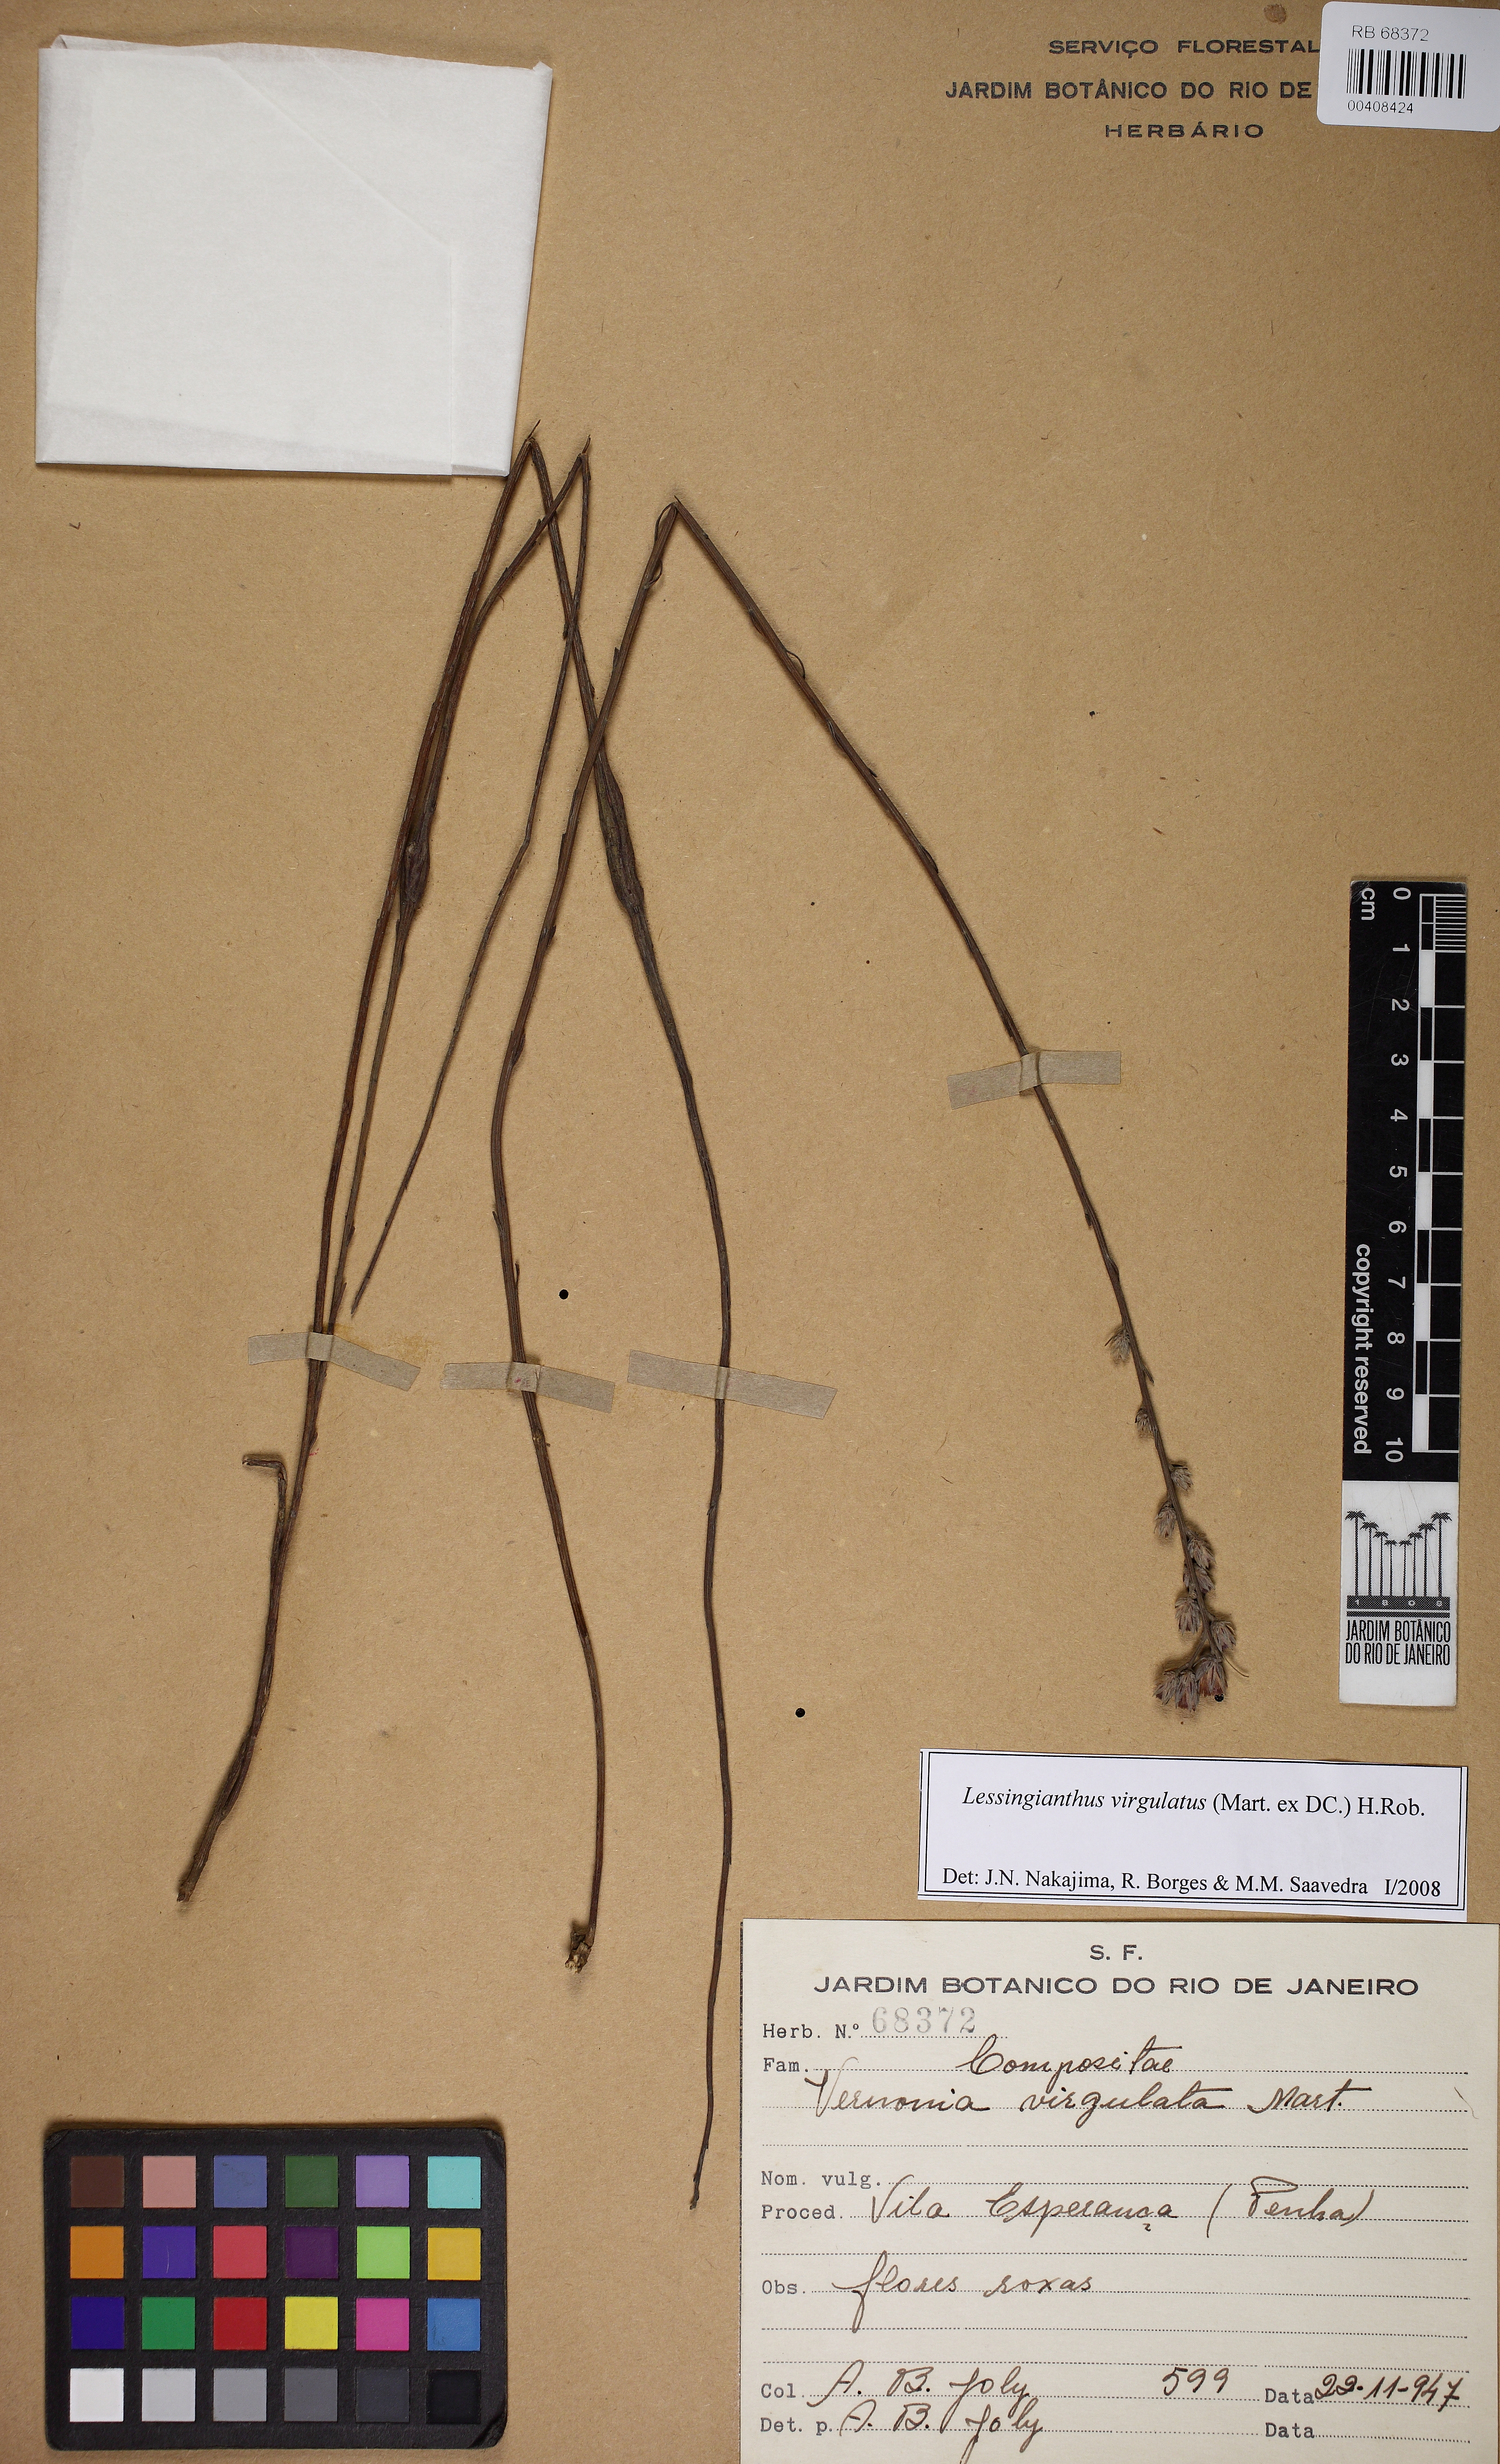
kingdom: Plantae
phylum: Tracheophyta
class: Magnoliopsida
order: Asterales
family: Asteraceae
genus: Lessingianthus
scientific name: Lessingianthus virgulatus
